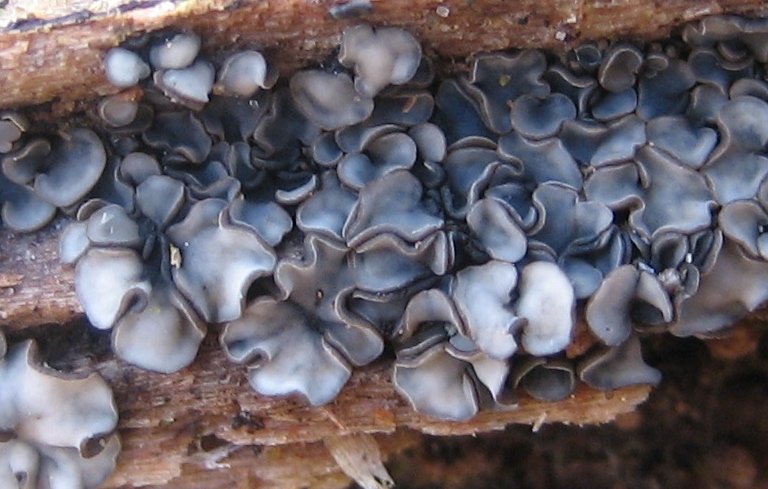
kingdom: Fungi
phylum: Ascomycota
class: Leotiomycetes
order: Helotiales
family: Mollisiaceae
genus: Mollisia
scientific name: Mollisia
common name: gråskive
